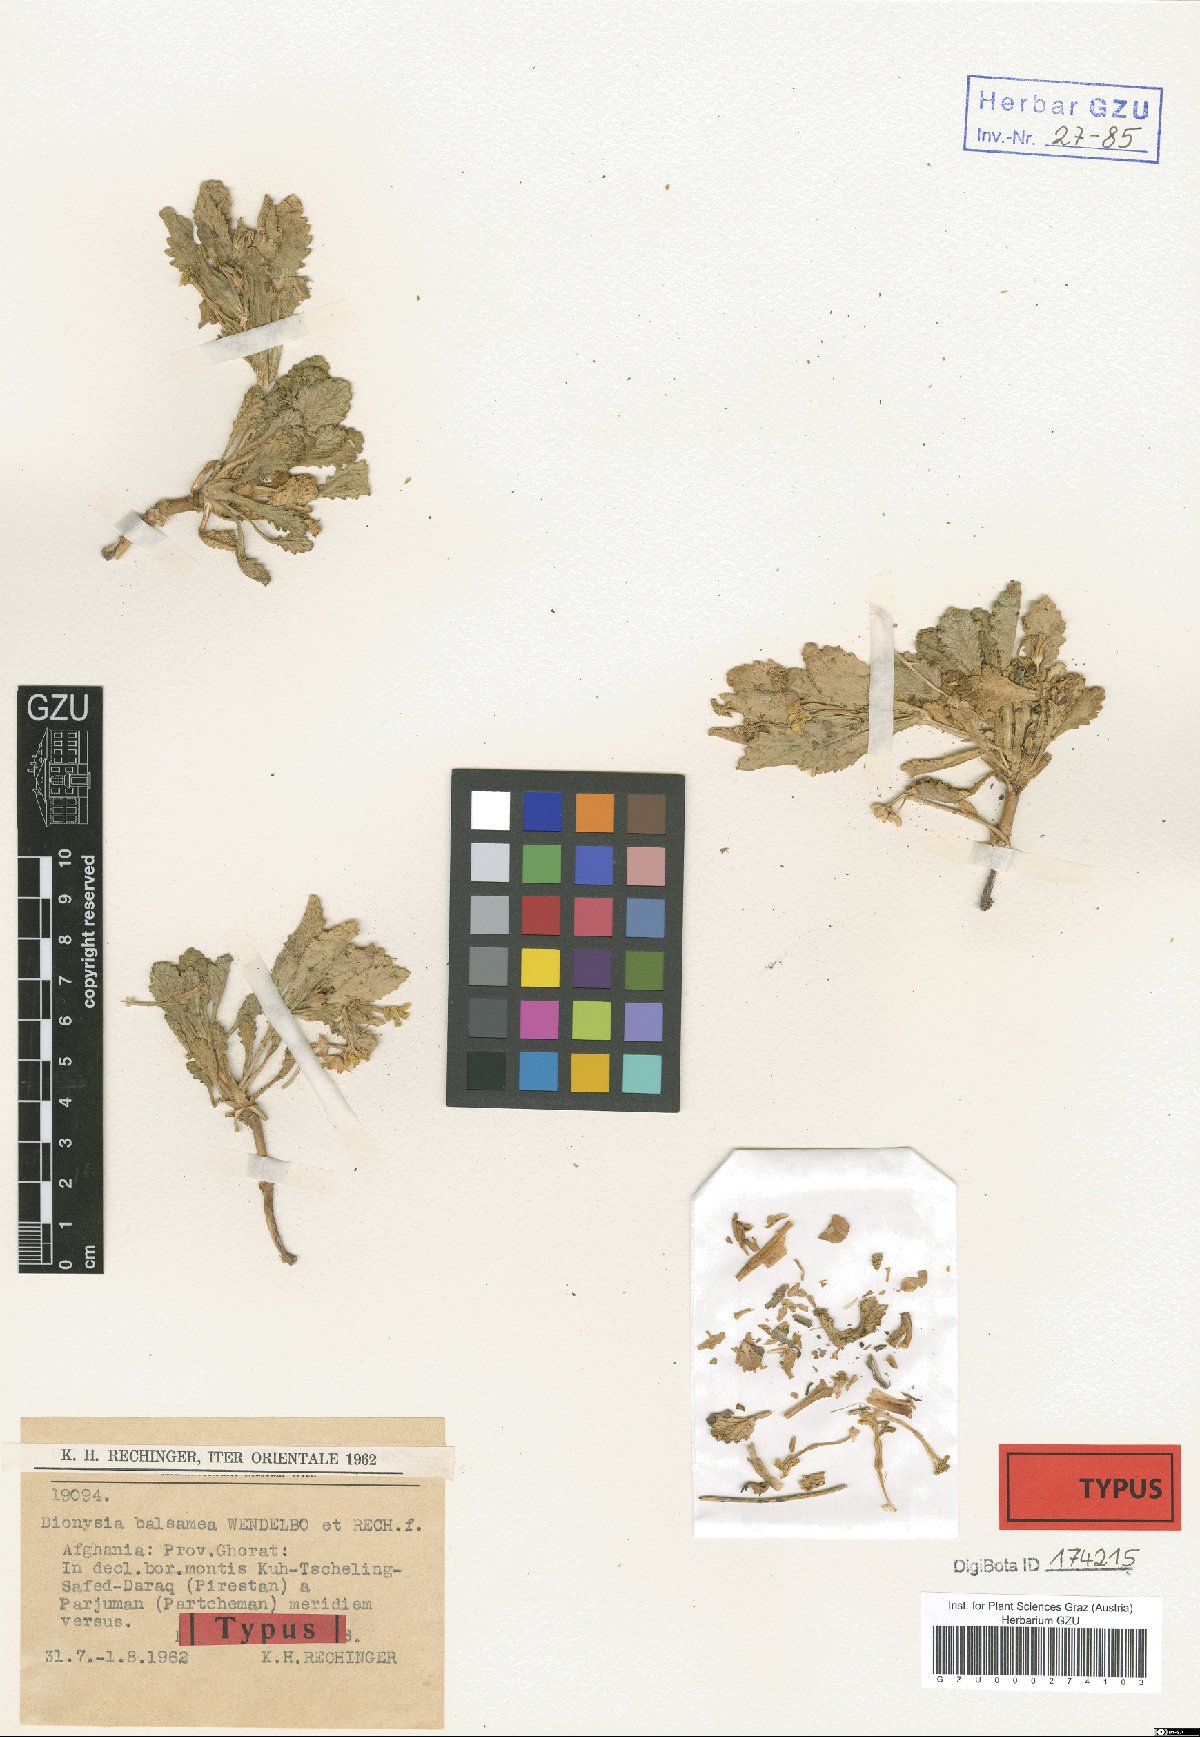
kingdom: Plantae
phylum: Tracheophyta
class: Magnoliopsida
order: Ericales
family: Primulaceae
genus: Dionysia
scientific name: Dionysia balsamea
